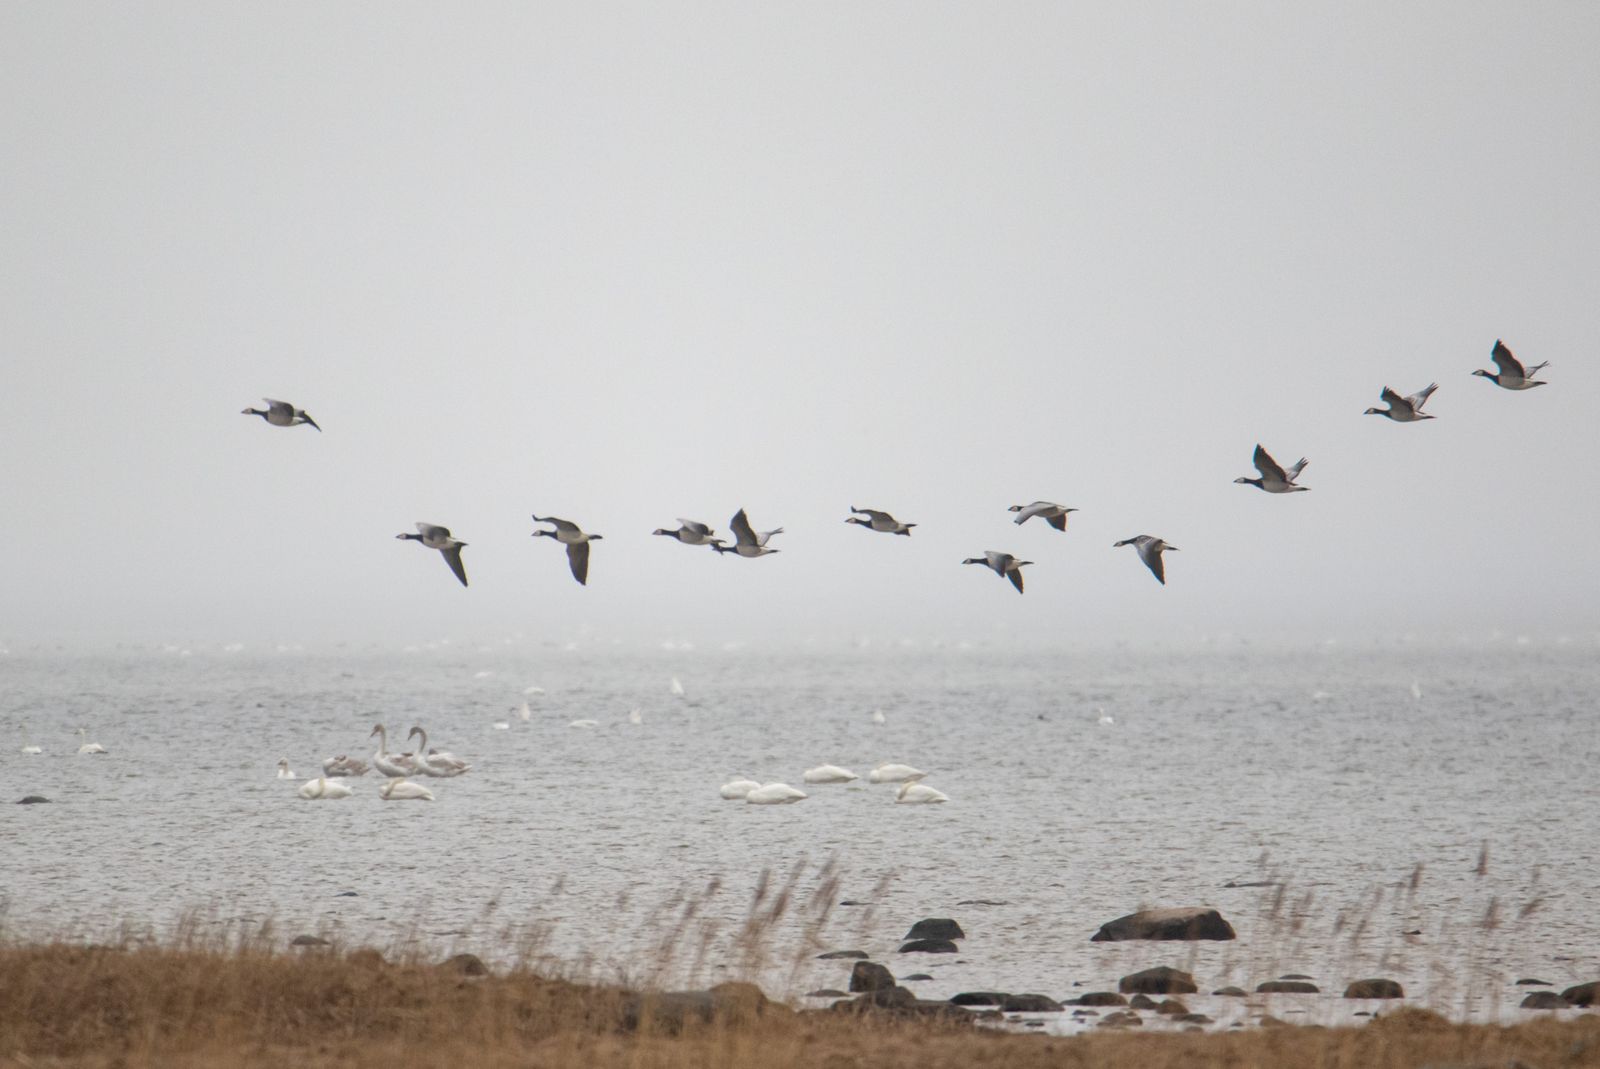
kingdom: Animalia
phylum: Chordata
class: Aves
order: Anseriformes
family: Anatidae
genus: Branta
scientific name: Branta leucopsis
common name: Barnacle goose
